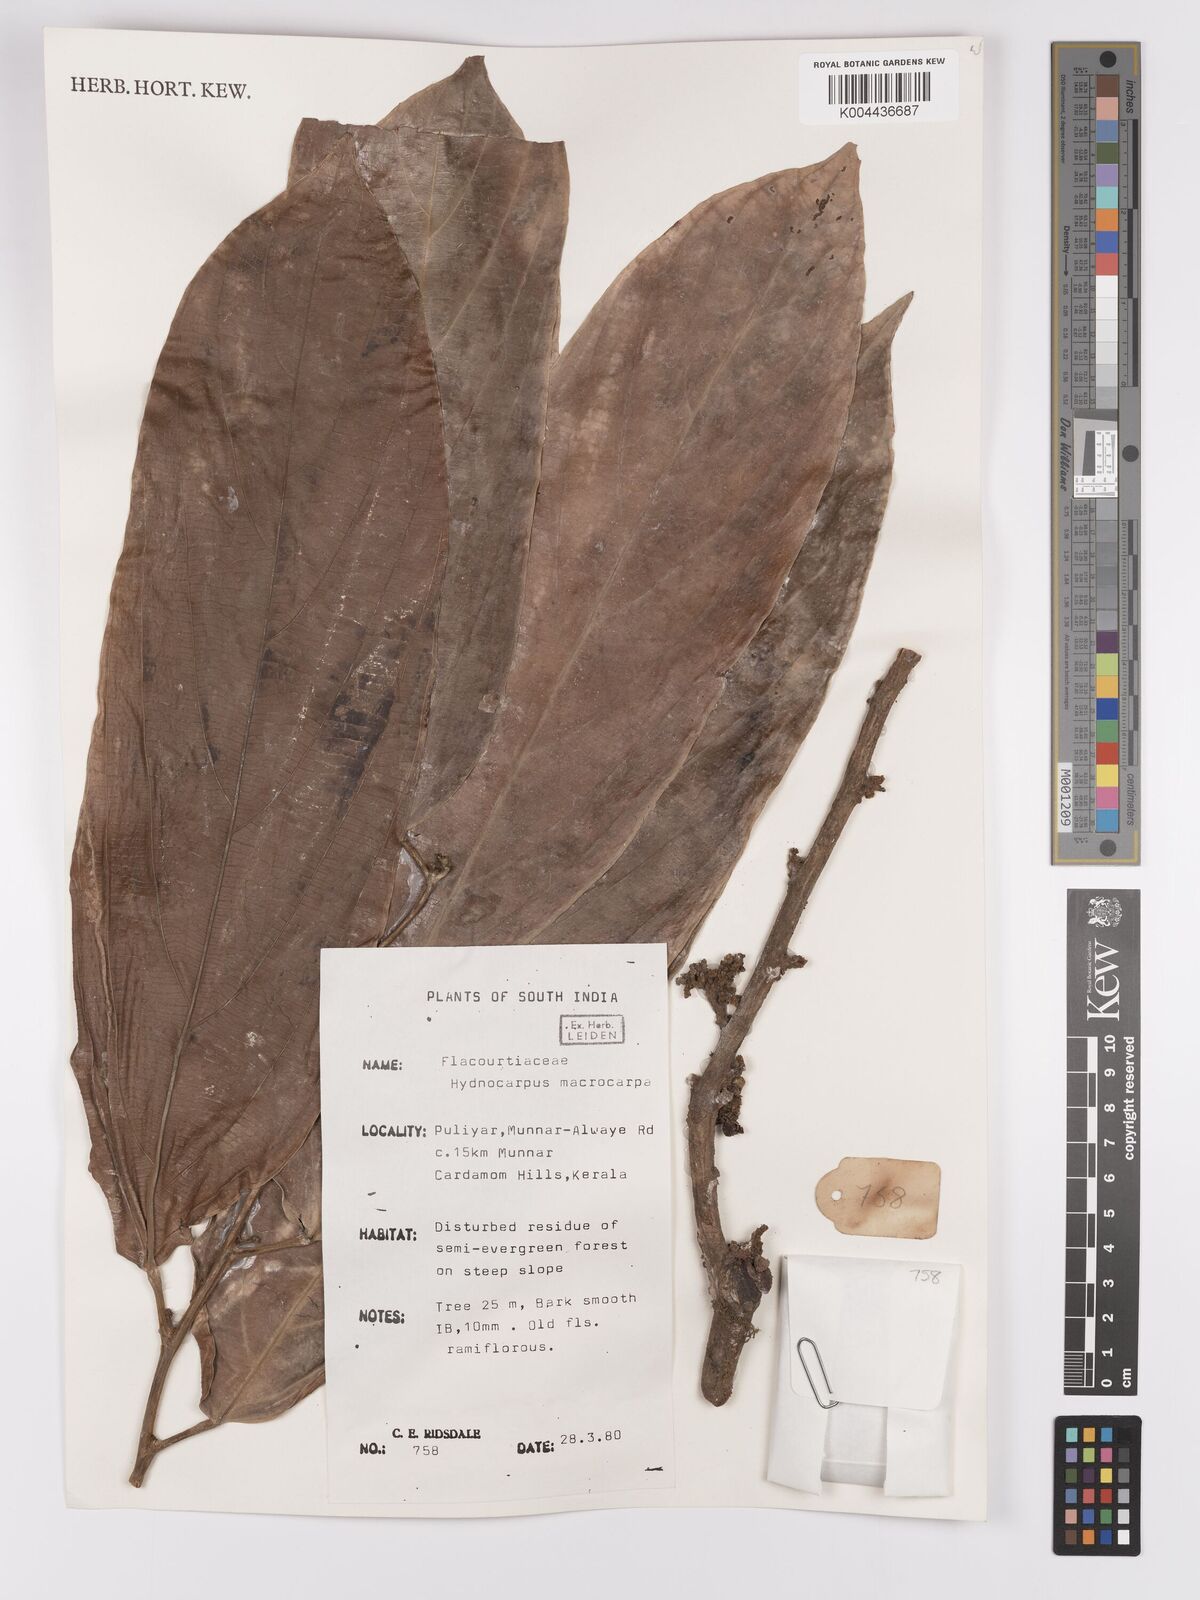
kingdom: Plantae
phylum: Tracheophyta
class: Magnoliopsida
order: Malpighiales
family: Achariaceae
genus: Hydnocarpus
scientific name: Hydnocarpus macrocarpus
